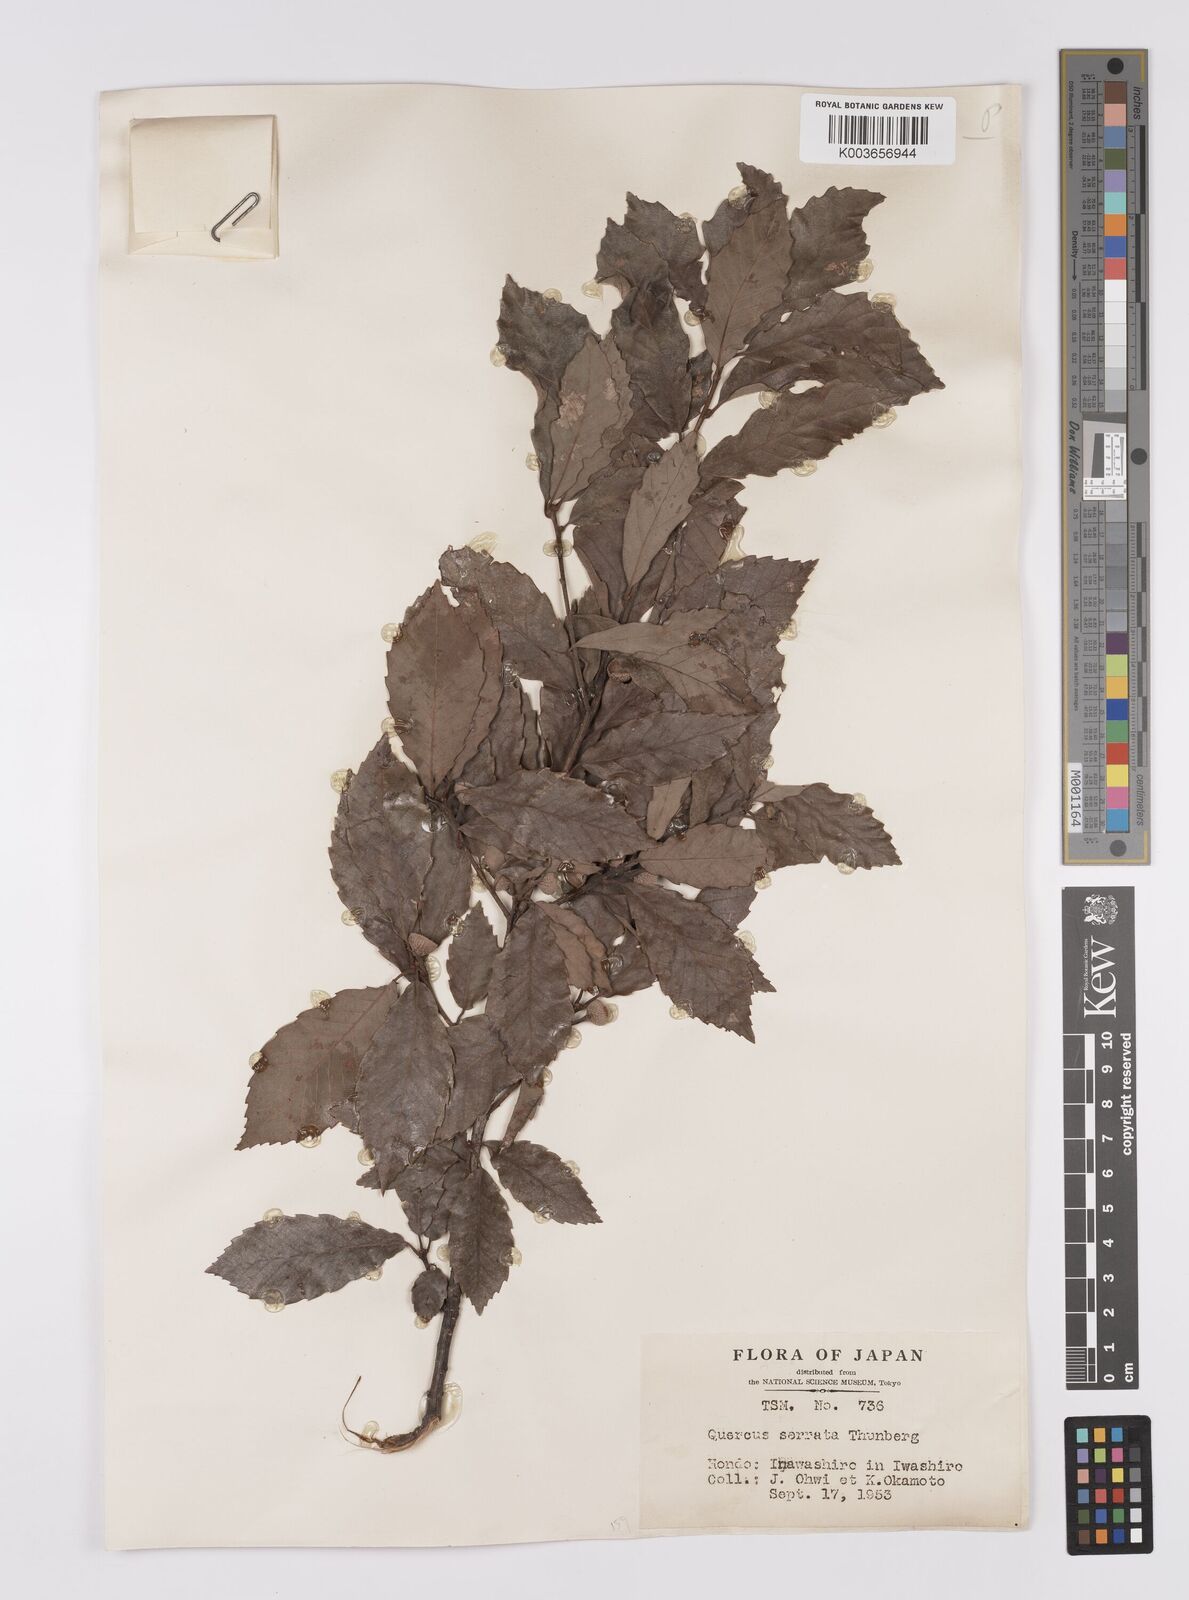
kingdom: Plantae
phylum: Tracheophyta
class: Magnoliopsida
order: Fagales
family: Fagaceae
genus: Quercus
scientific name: Quercus serrata
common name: Bao li
